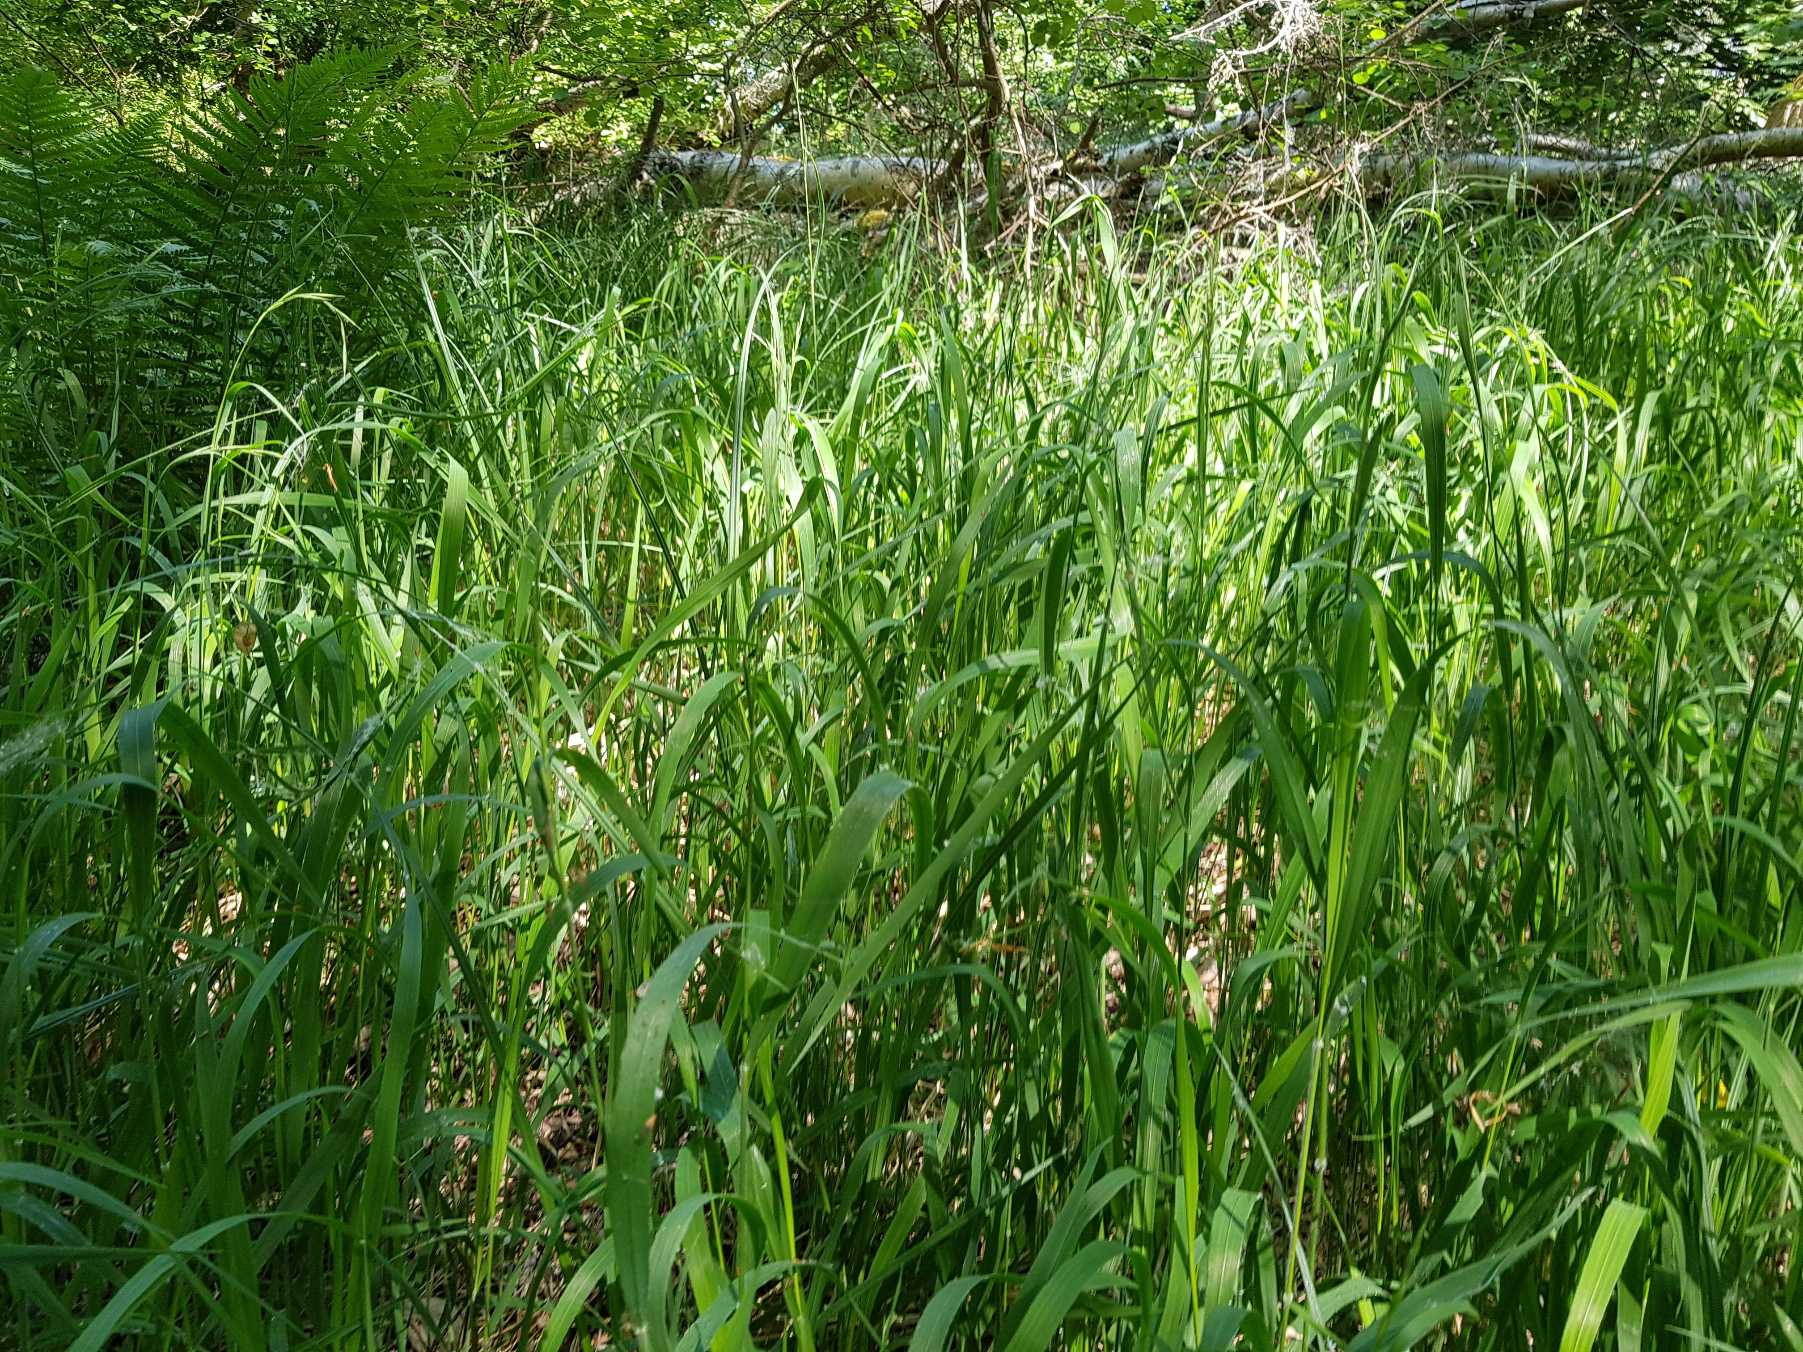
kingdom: Plantae
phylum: Tracheophyta
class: Liliopsida
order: Poales
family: Poaceae
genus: Brachypodium
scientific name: Brachypodium pinnatum
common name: Bakke-stilkaks
